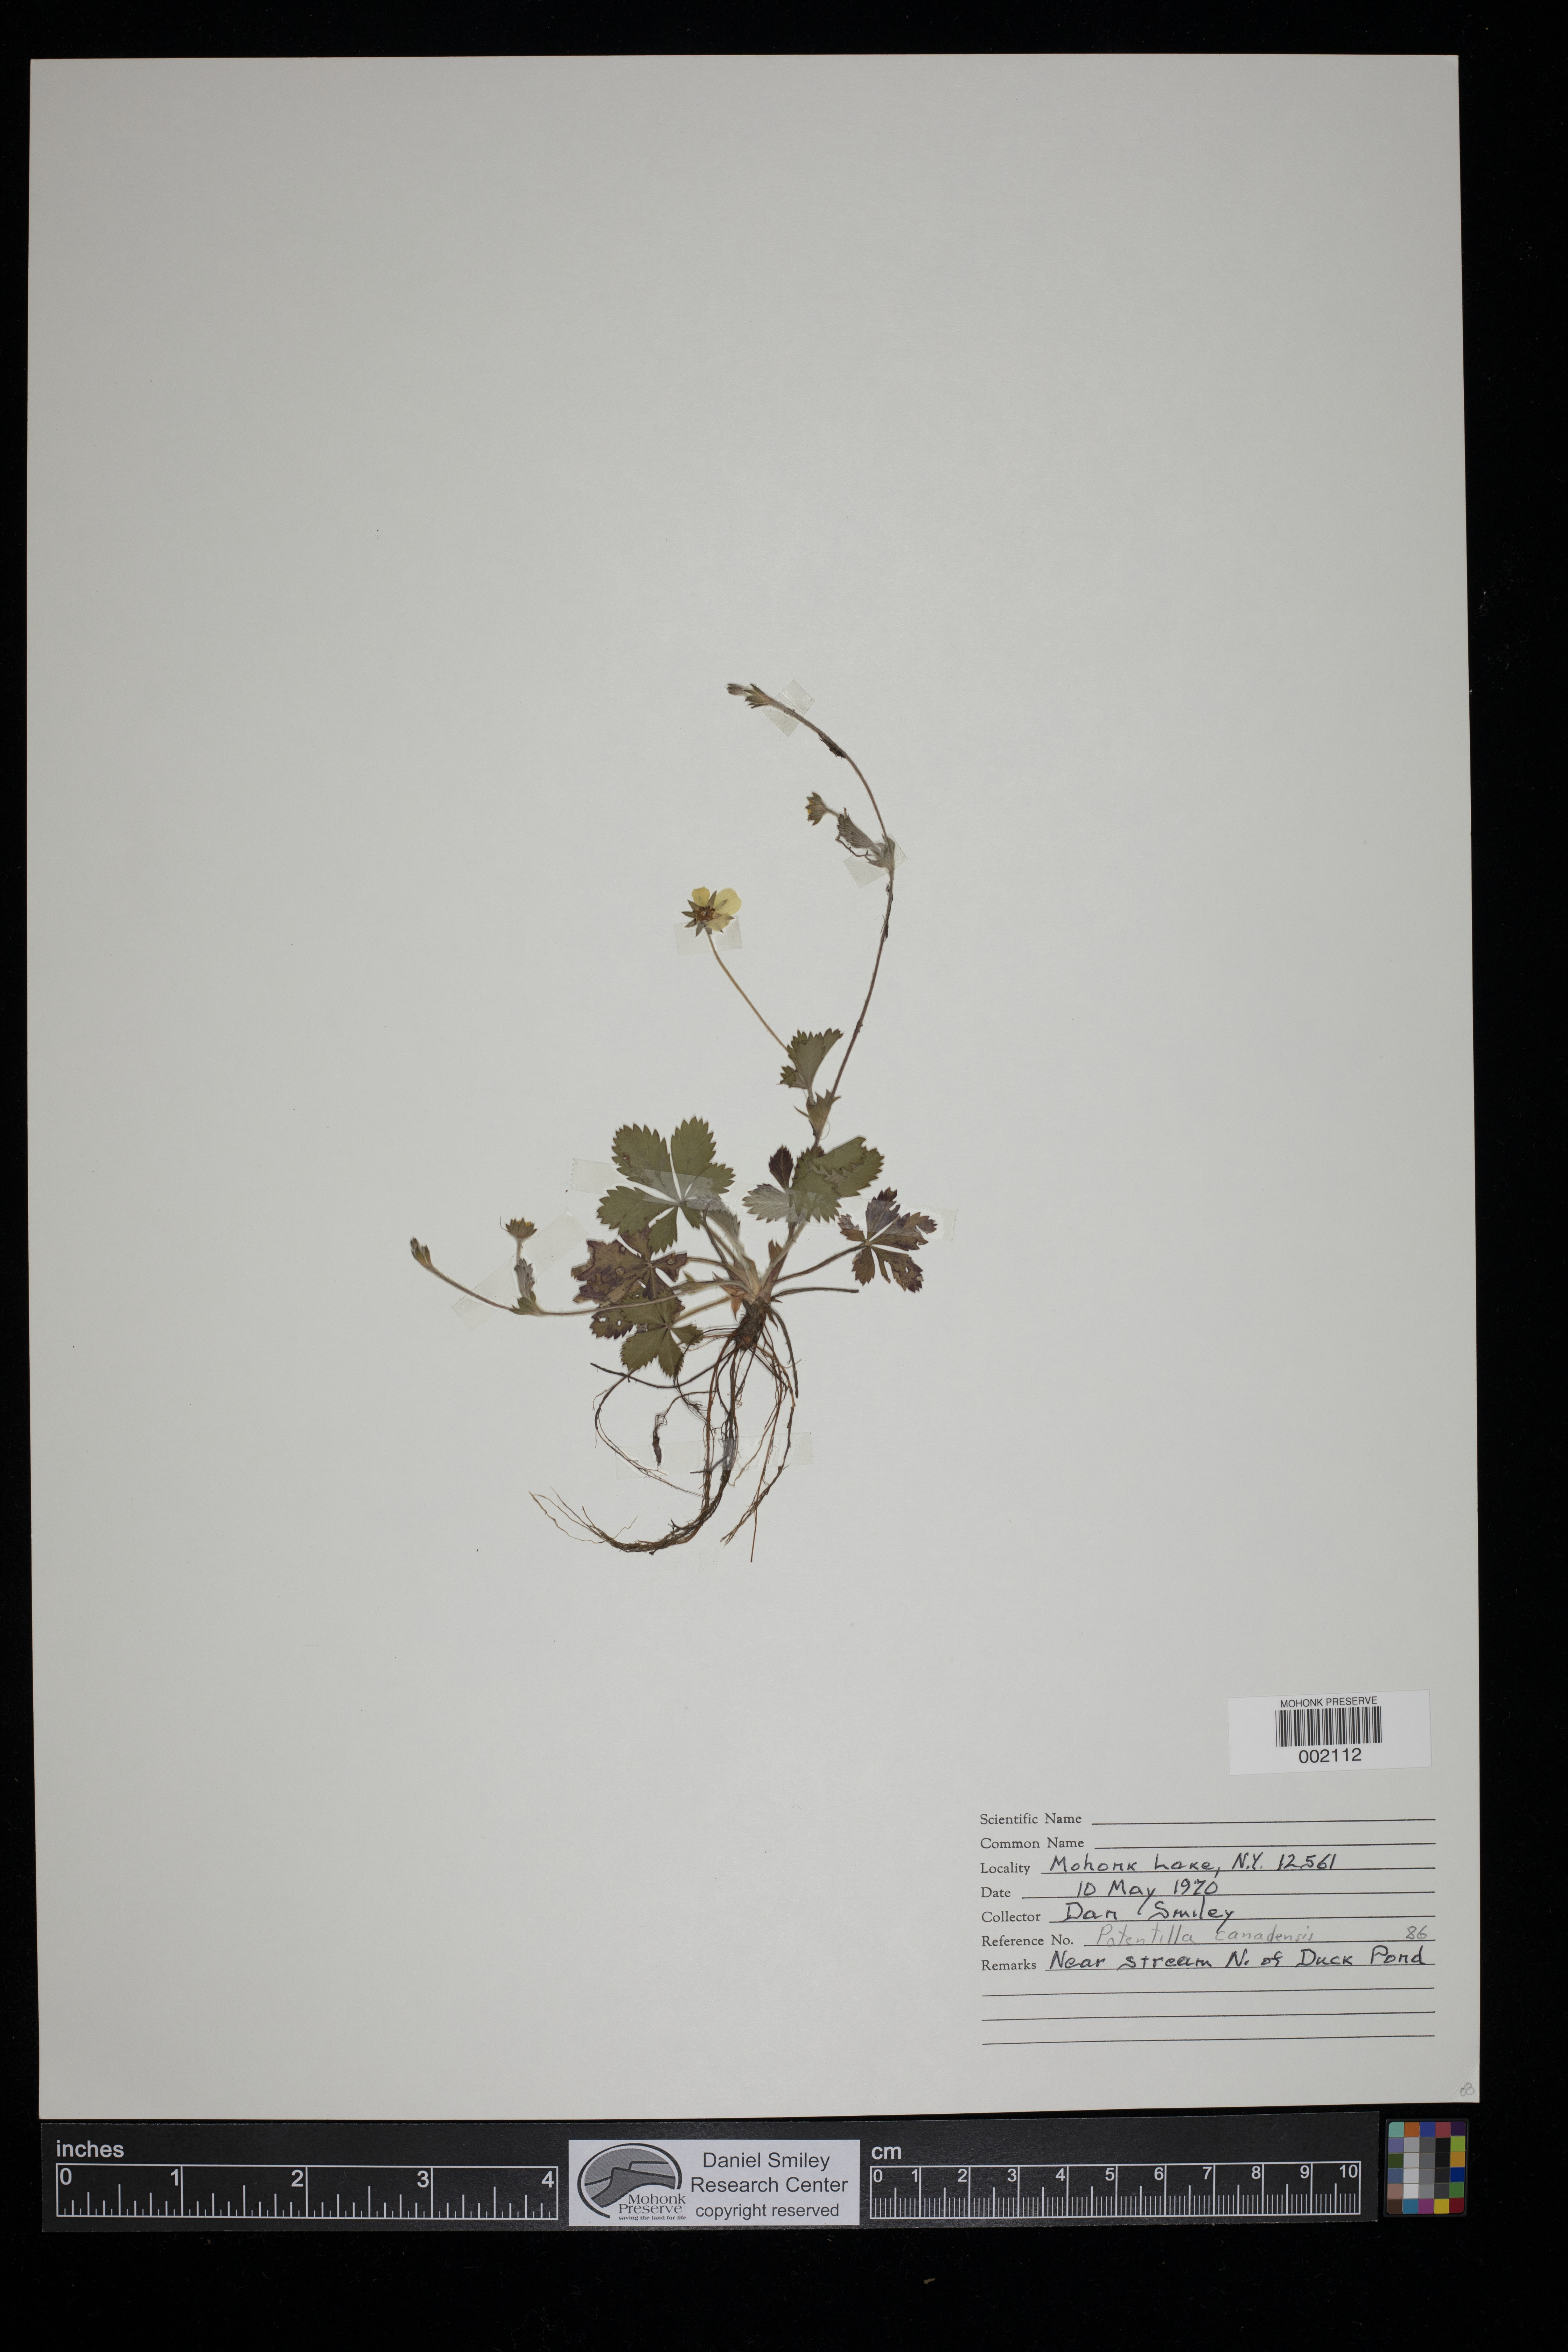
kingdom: Plantae
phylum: Tracheophyta
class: Magnoliopsida
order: Rosales
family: Rosaceae
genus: Potentilla
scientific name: Potentilla canadensis
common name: Canada cinquefoil
